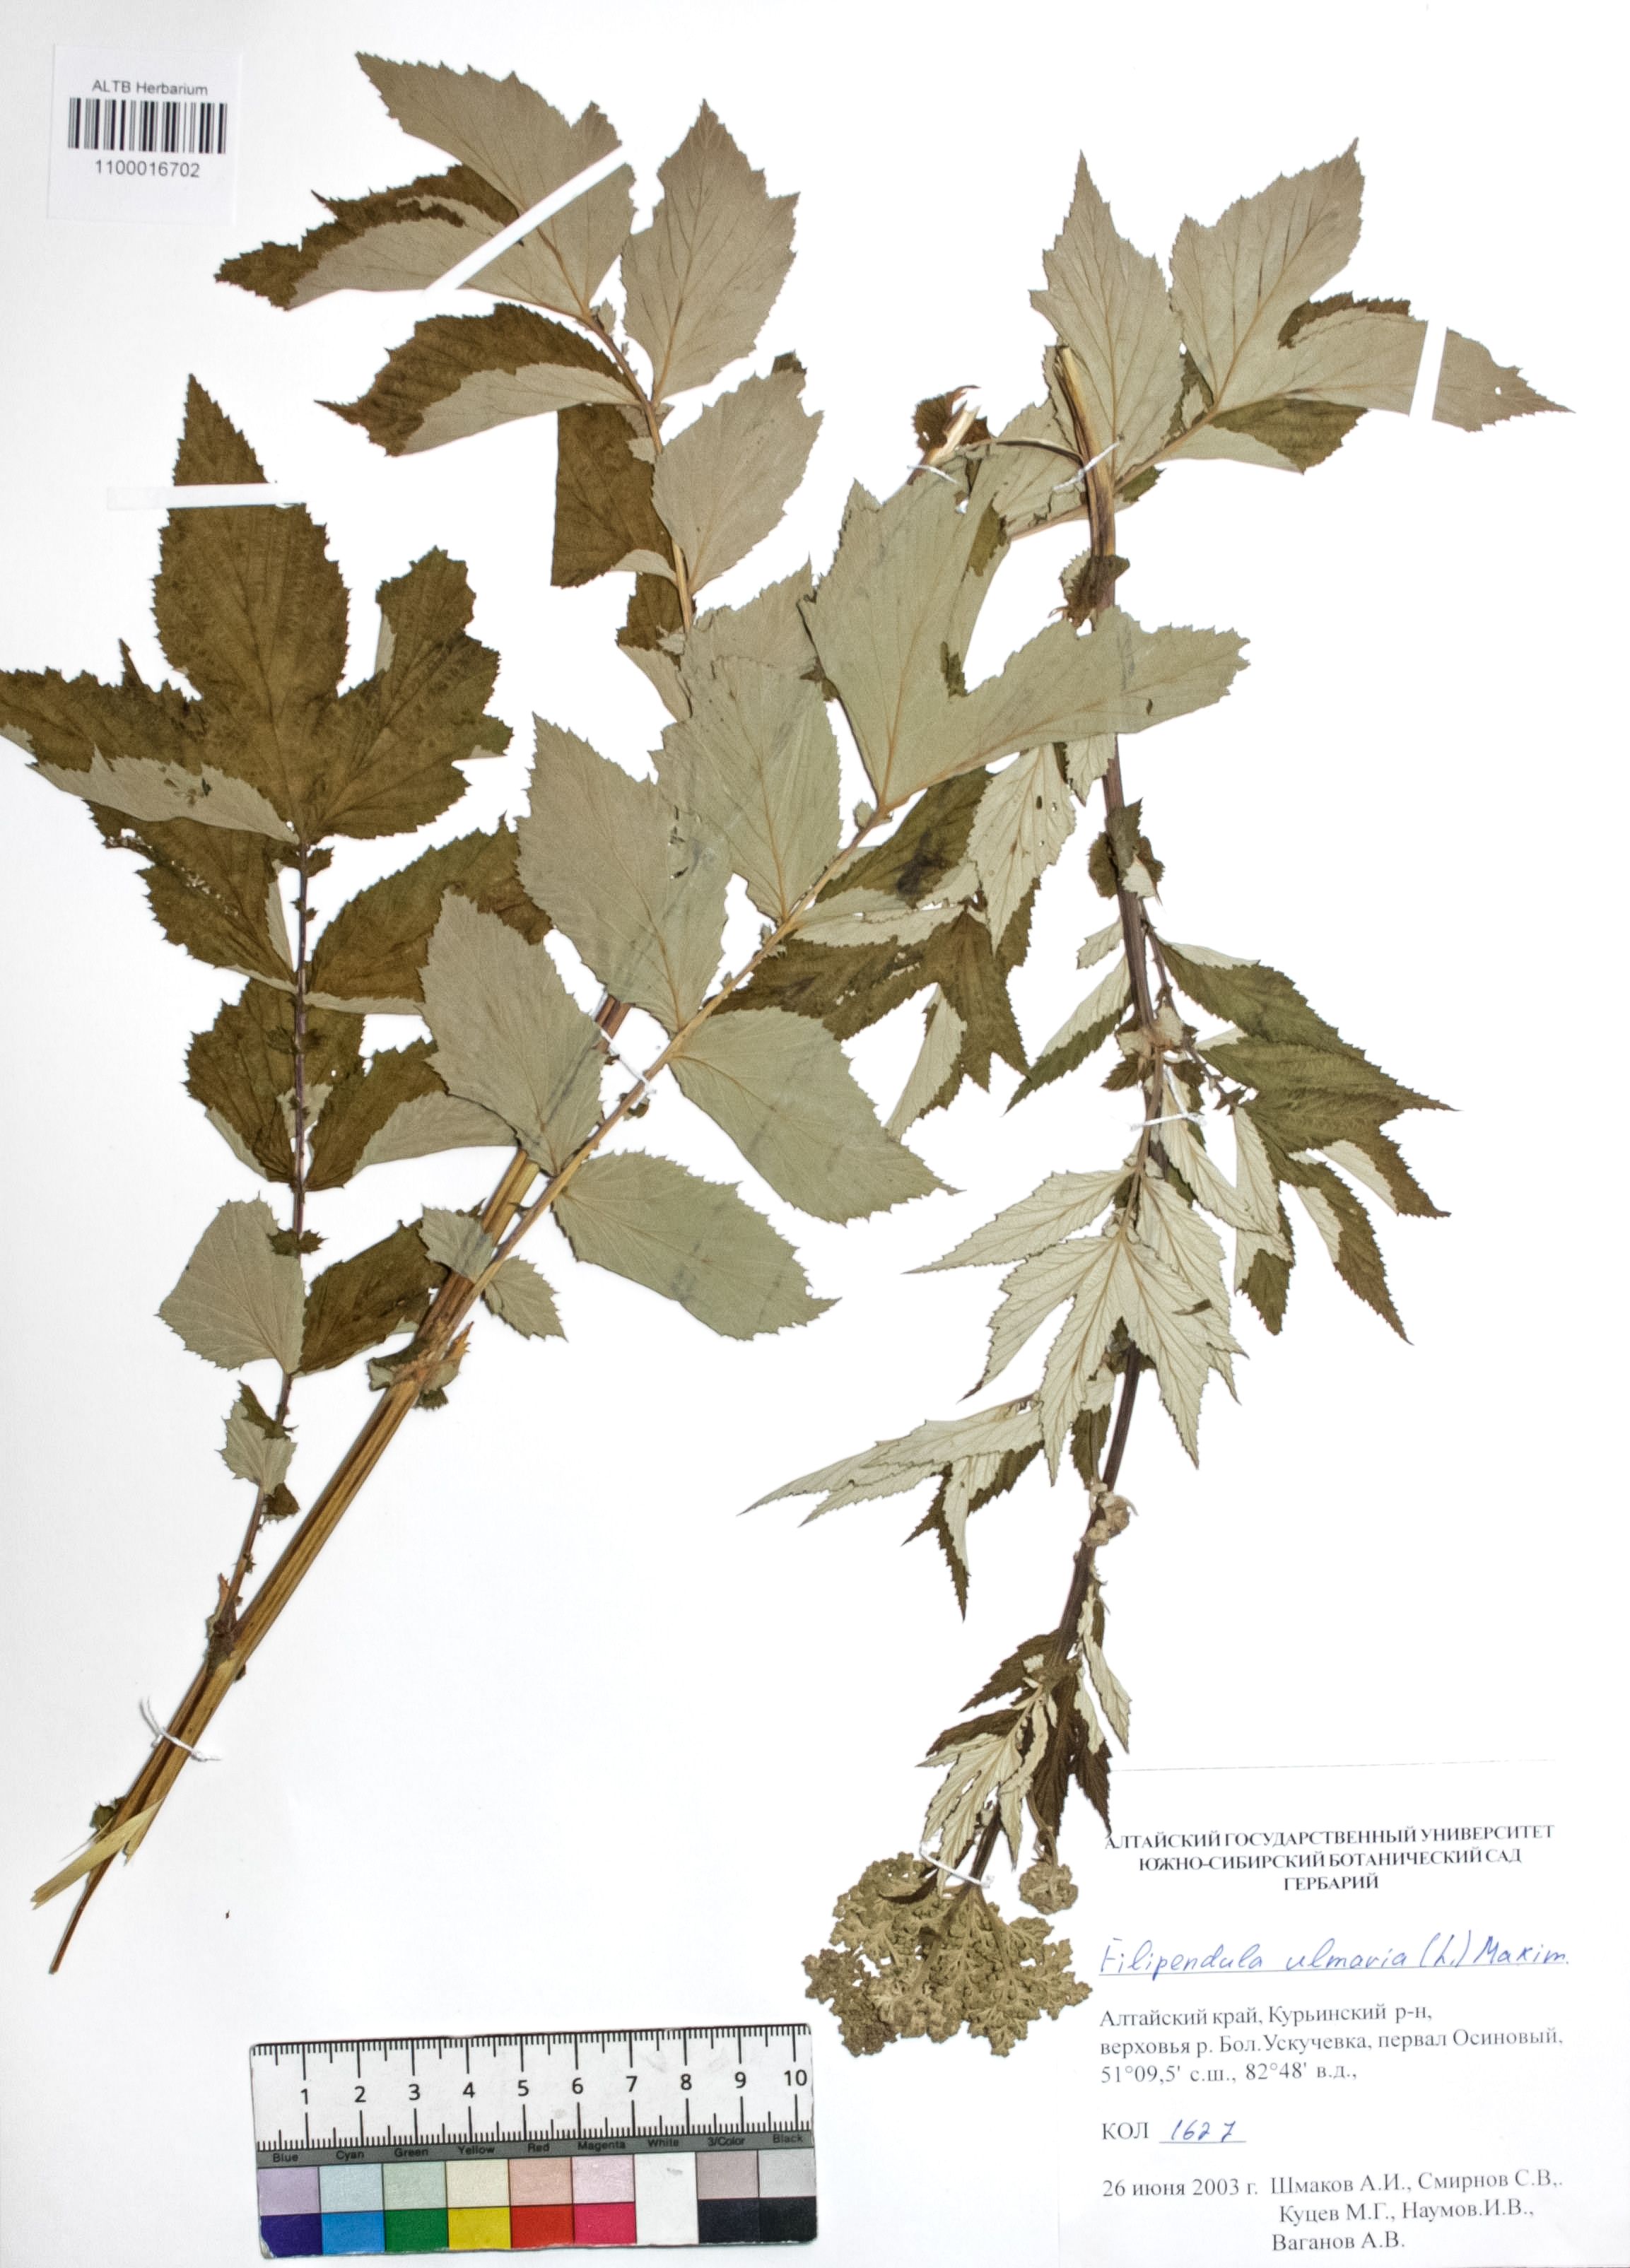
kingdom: Plantae
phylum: Tracheophyta
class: Magnoliopsida
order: Rosales
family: Rosaceae
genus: Filipendula
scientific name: Filipendula ulmaria
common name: Meadowsweet
